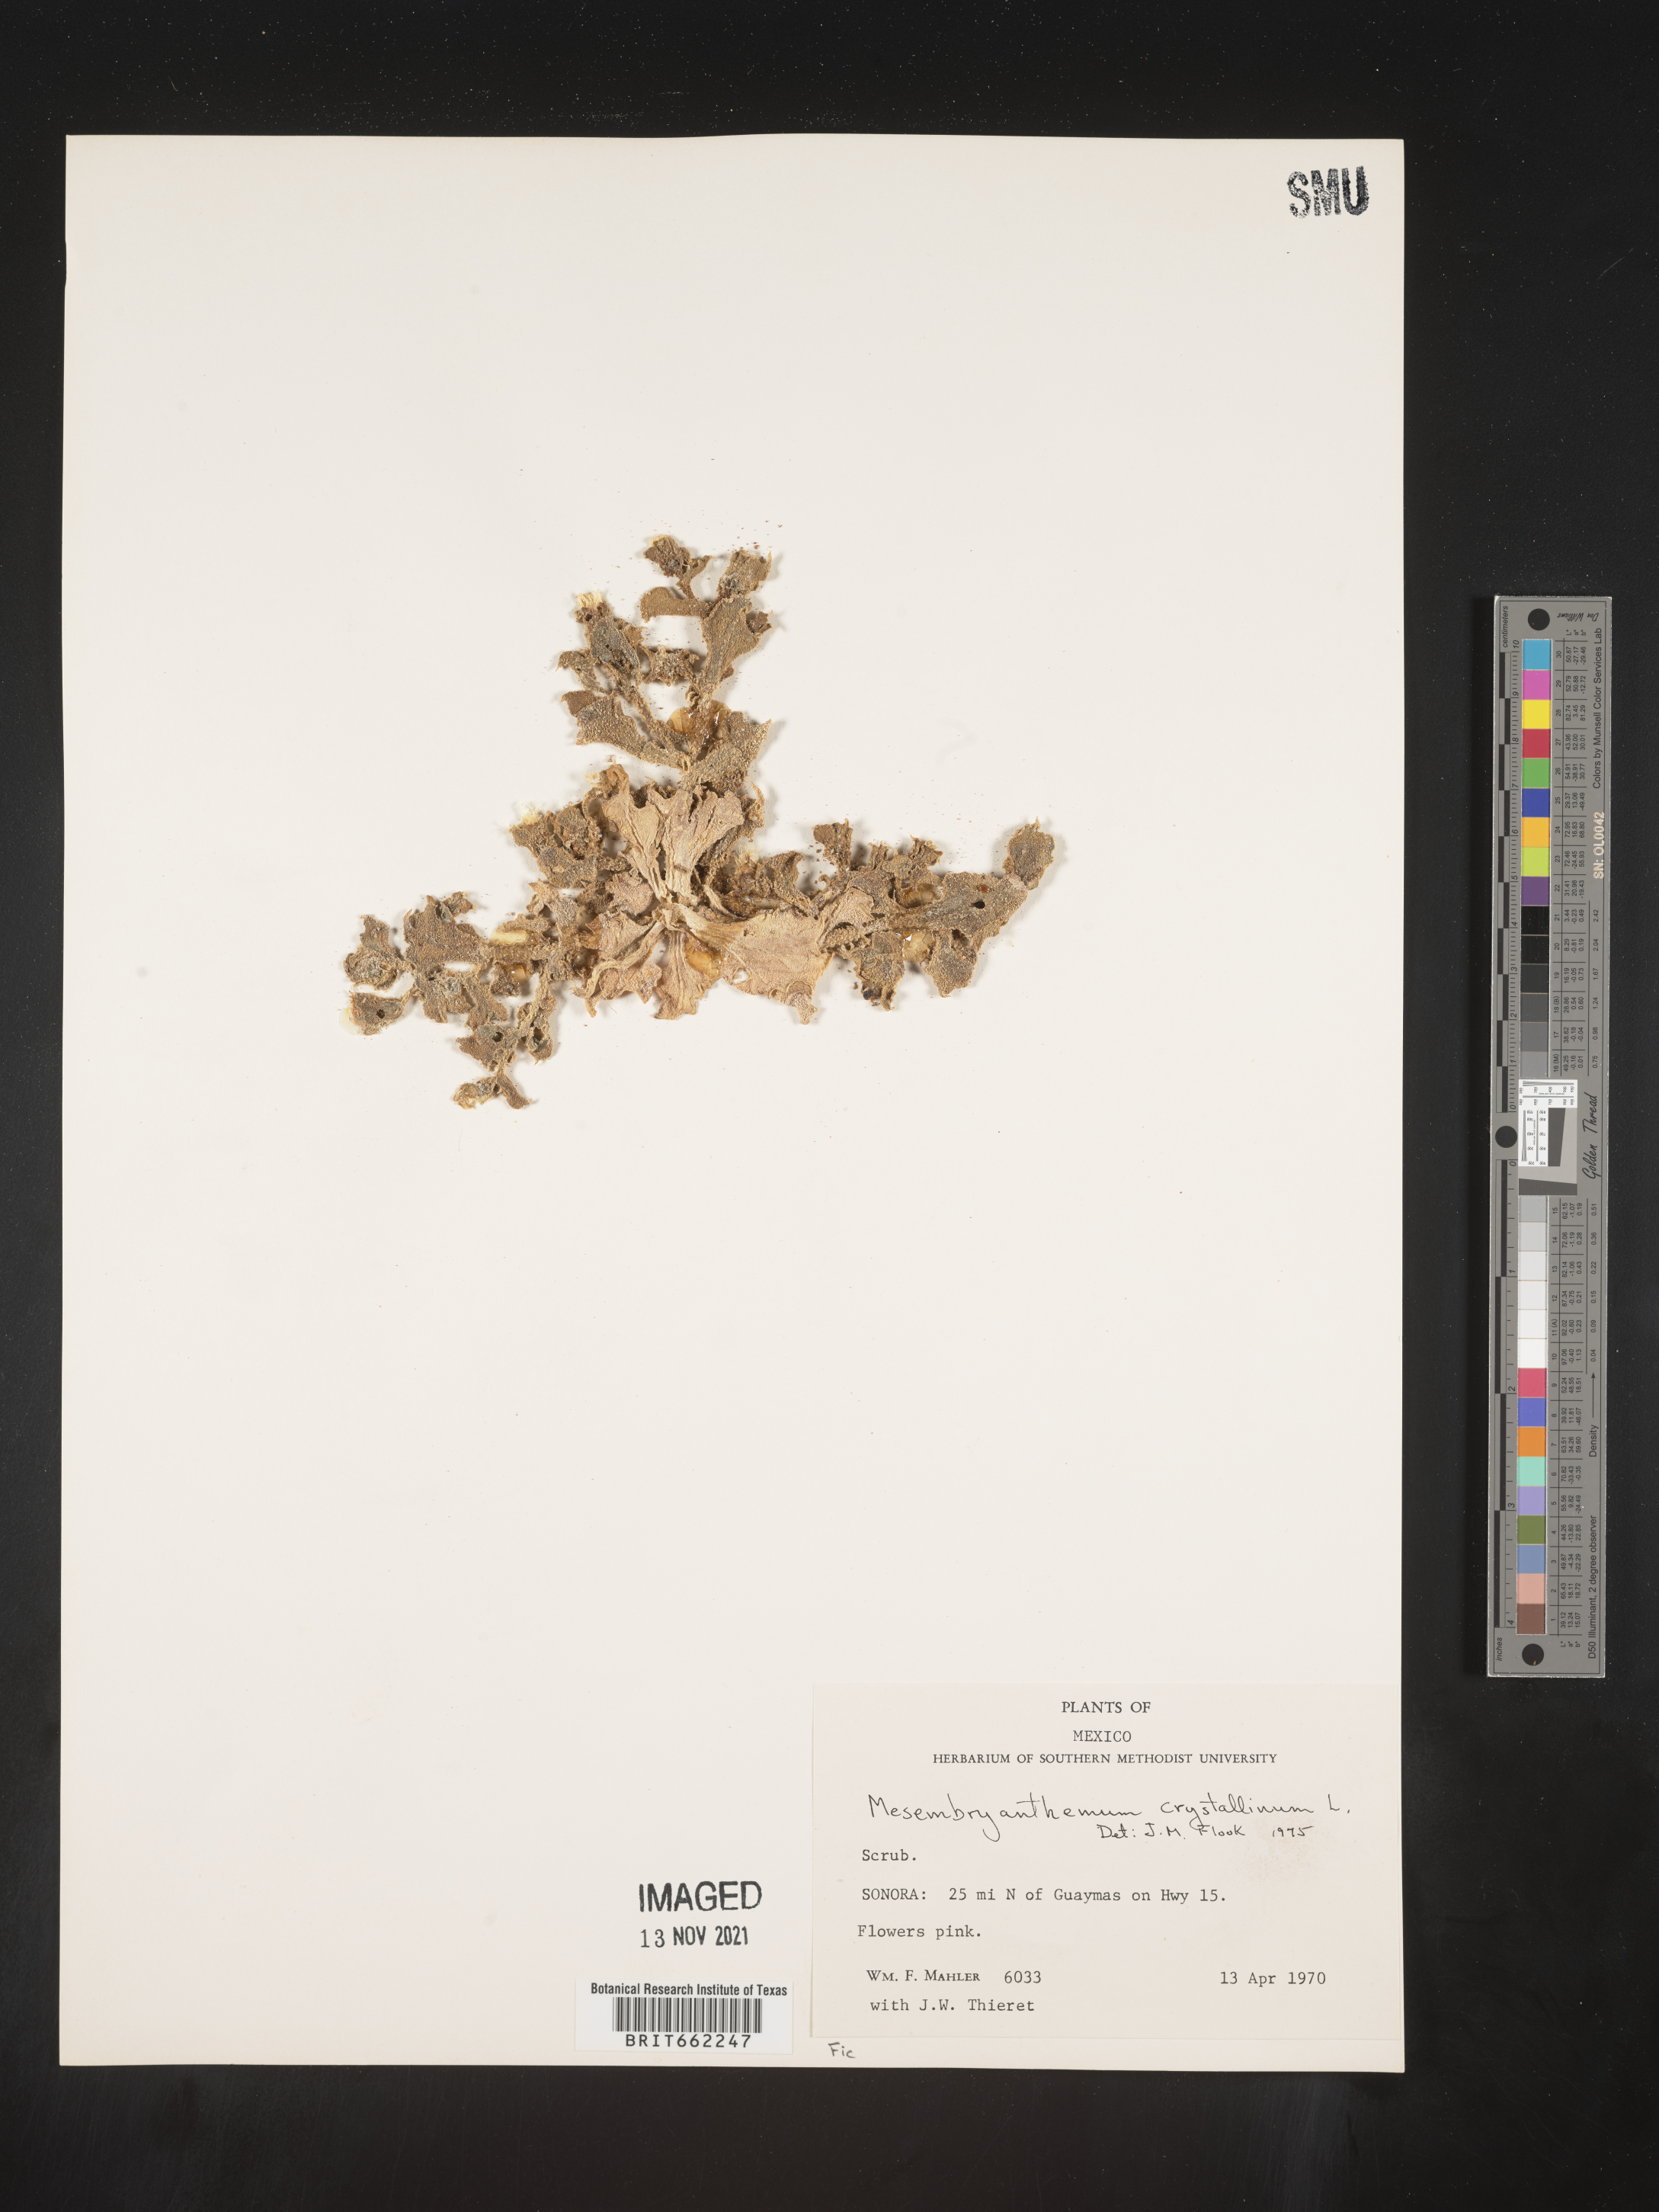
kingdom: Plantae
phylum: Tracheophyta
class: Magnoliopsida
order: Caryophyllales
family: Aizoaceae
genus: Mesembryanthemum
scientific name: Mesembryanthemum
